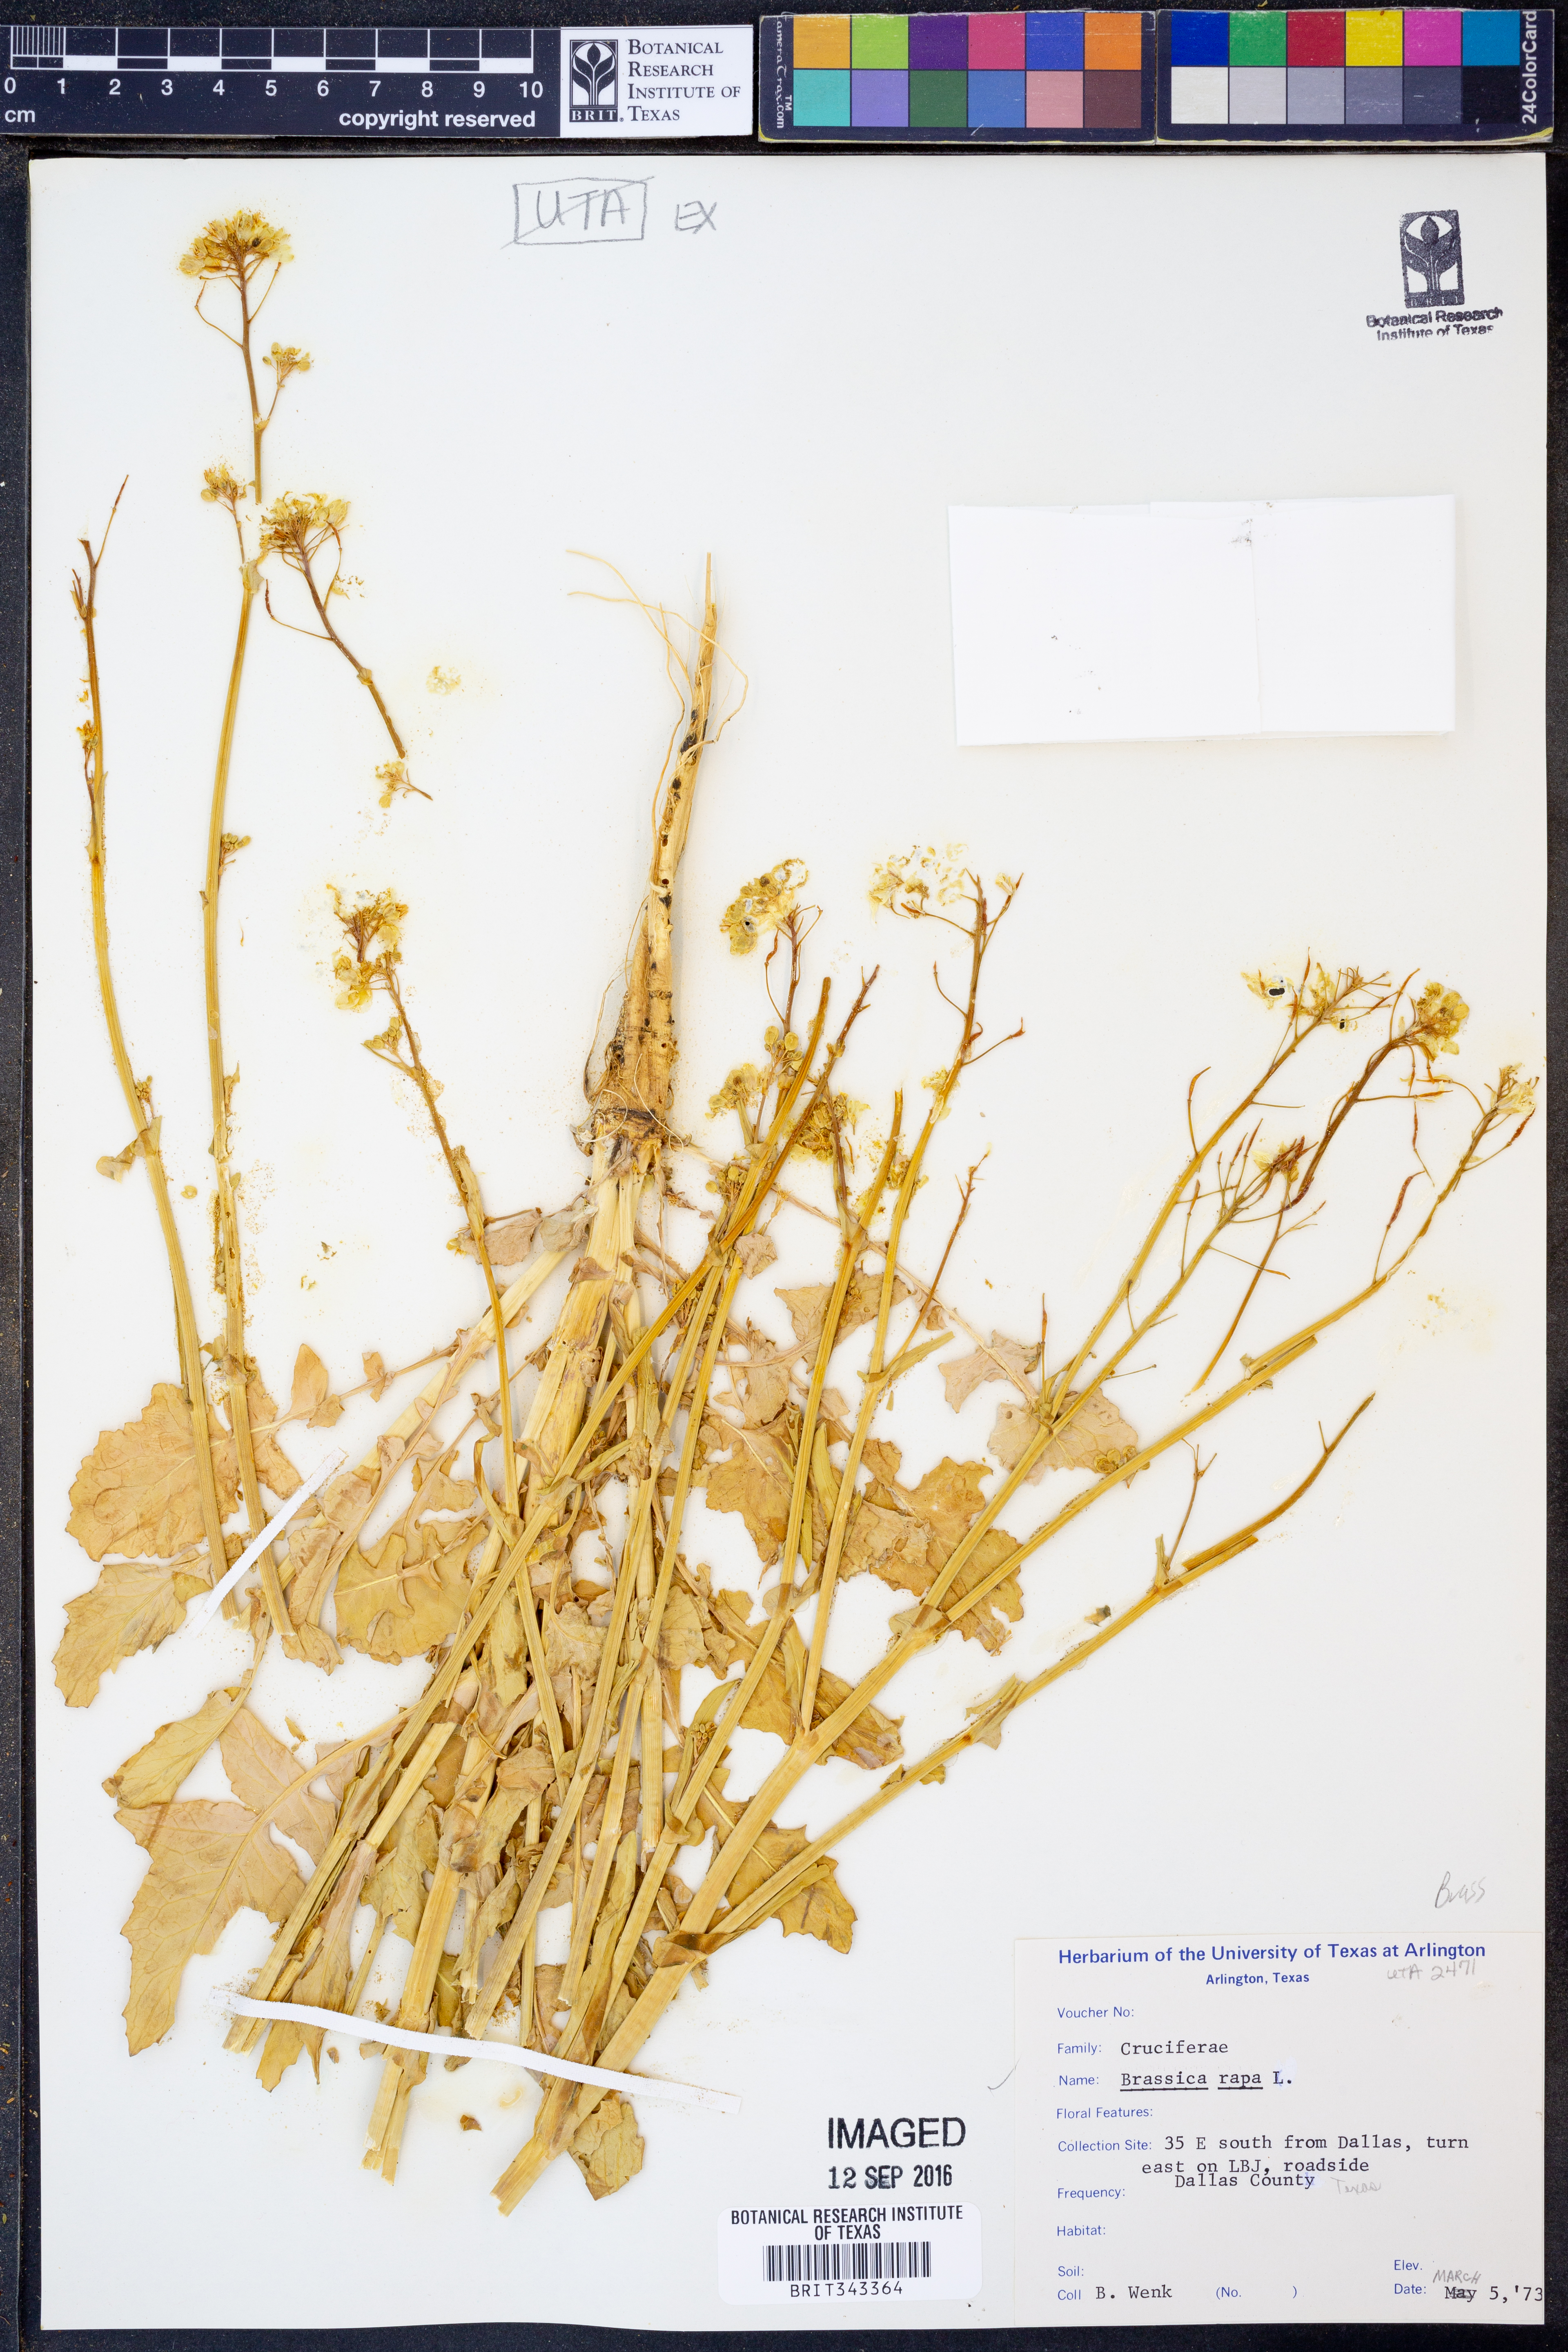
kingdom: Plantae
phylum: Tracheophyta
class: Magnoliopsida
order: Brassicales
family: Brassicaceae
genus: Brassica
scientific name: Brassica rapa
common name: Field mustard
